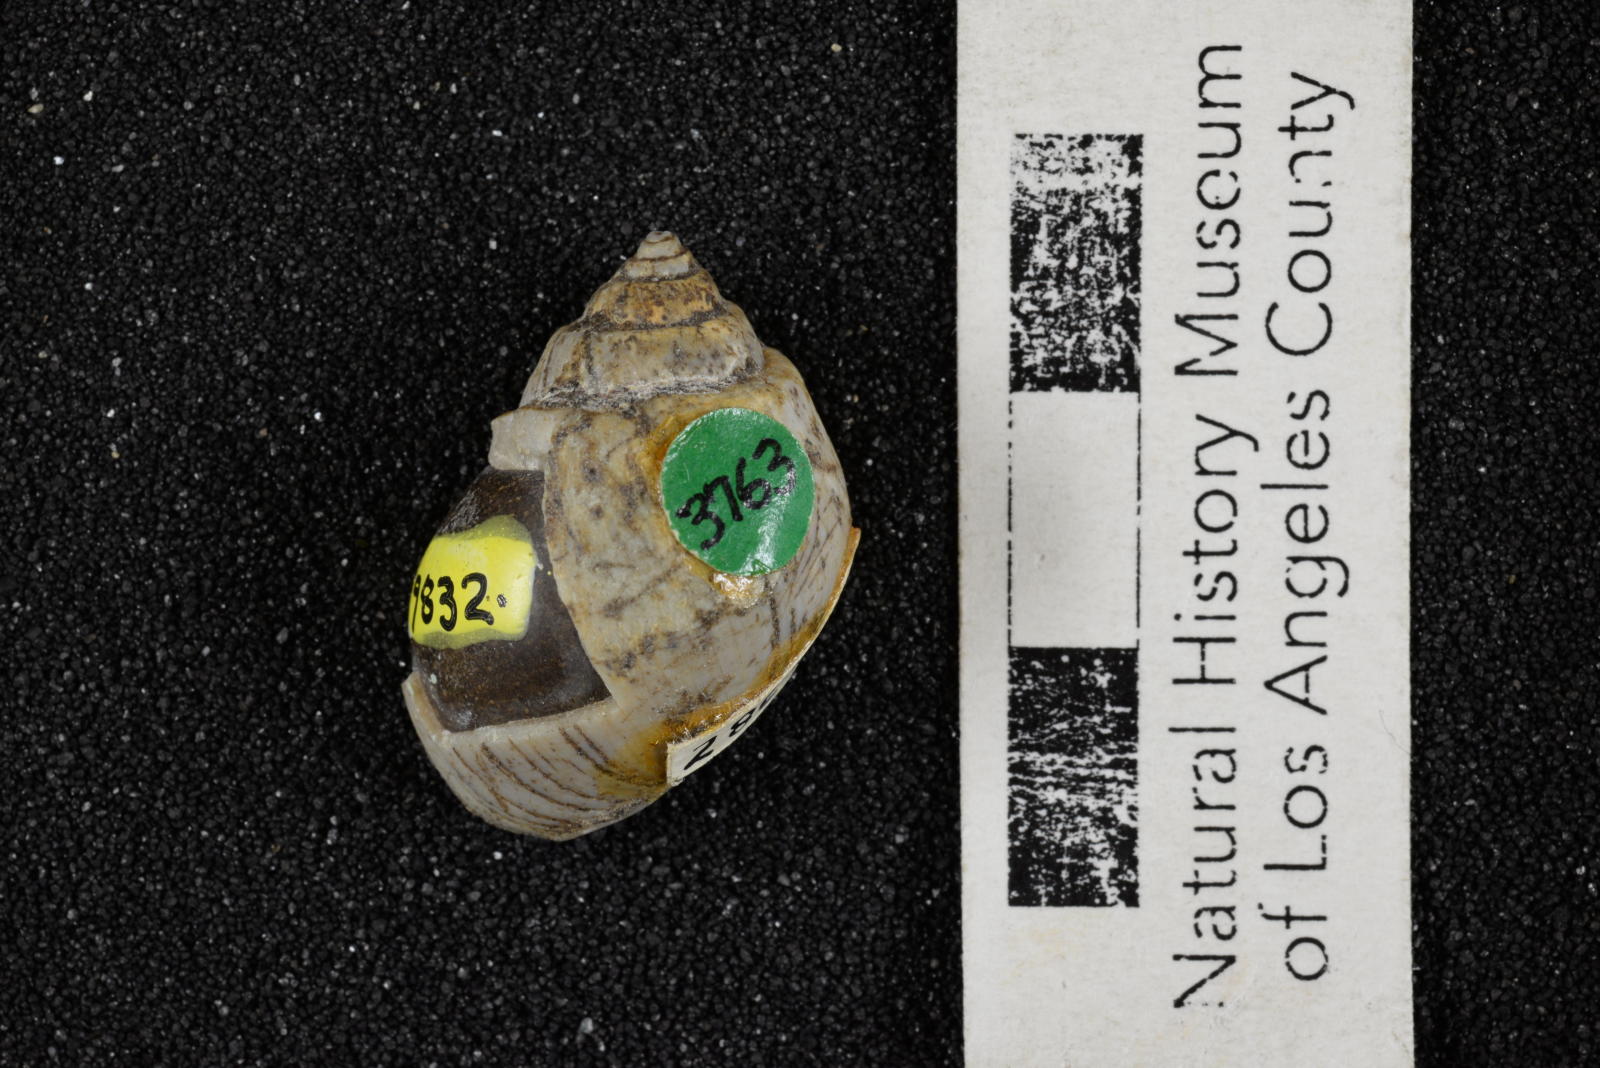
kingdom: Animalia
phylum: Mollusca
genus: Ampullina
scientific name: Ampullina
